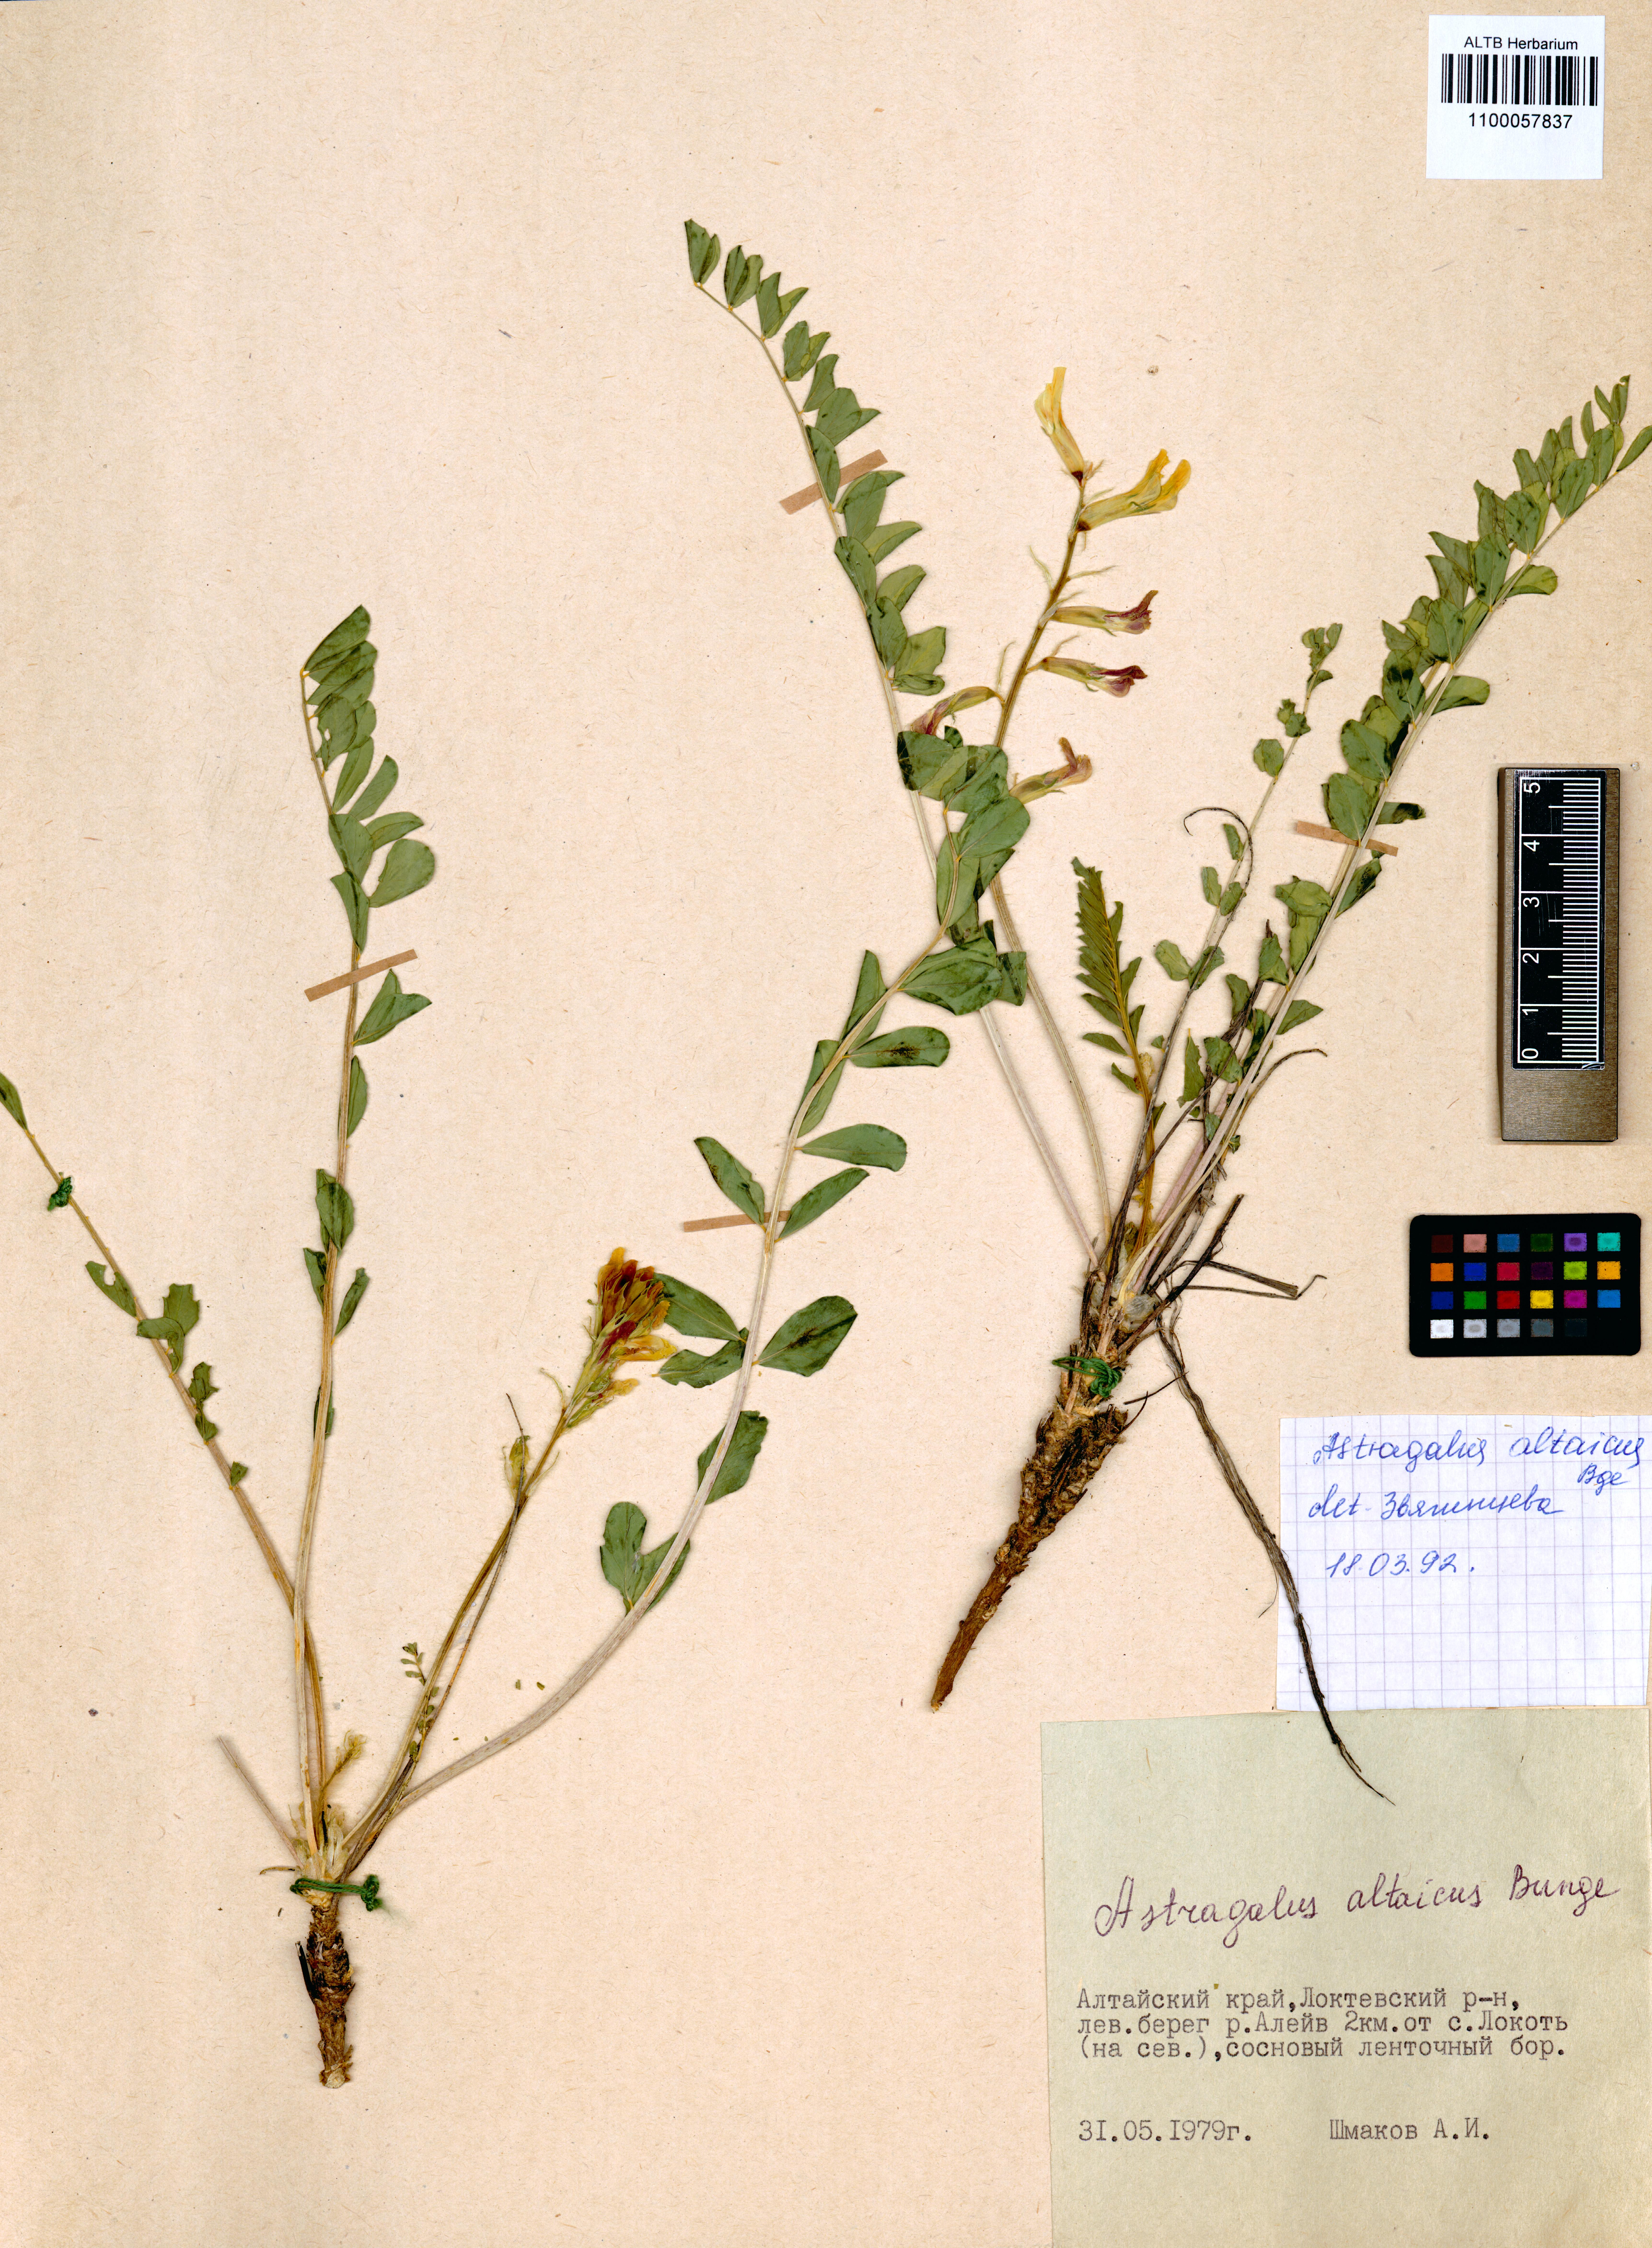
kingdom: Plantae
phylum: Tracheophyta
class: Magnoliopsida
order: Fabales
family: Fabaceae
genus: Astragalus
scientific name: Astragalus altaicola
